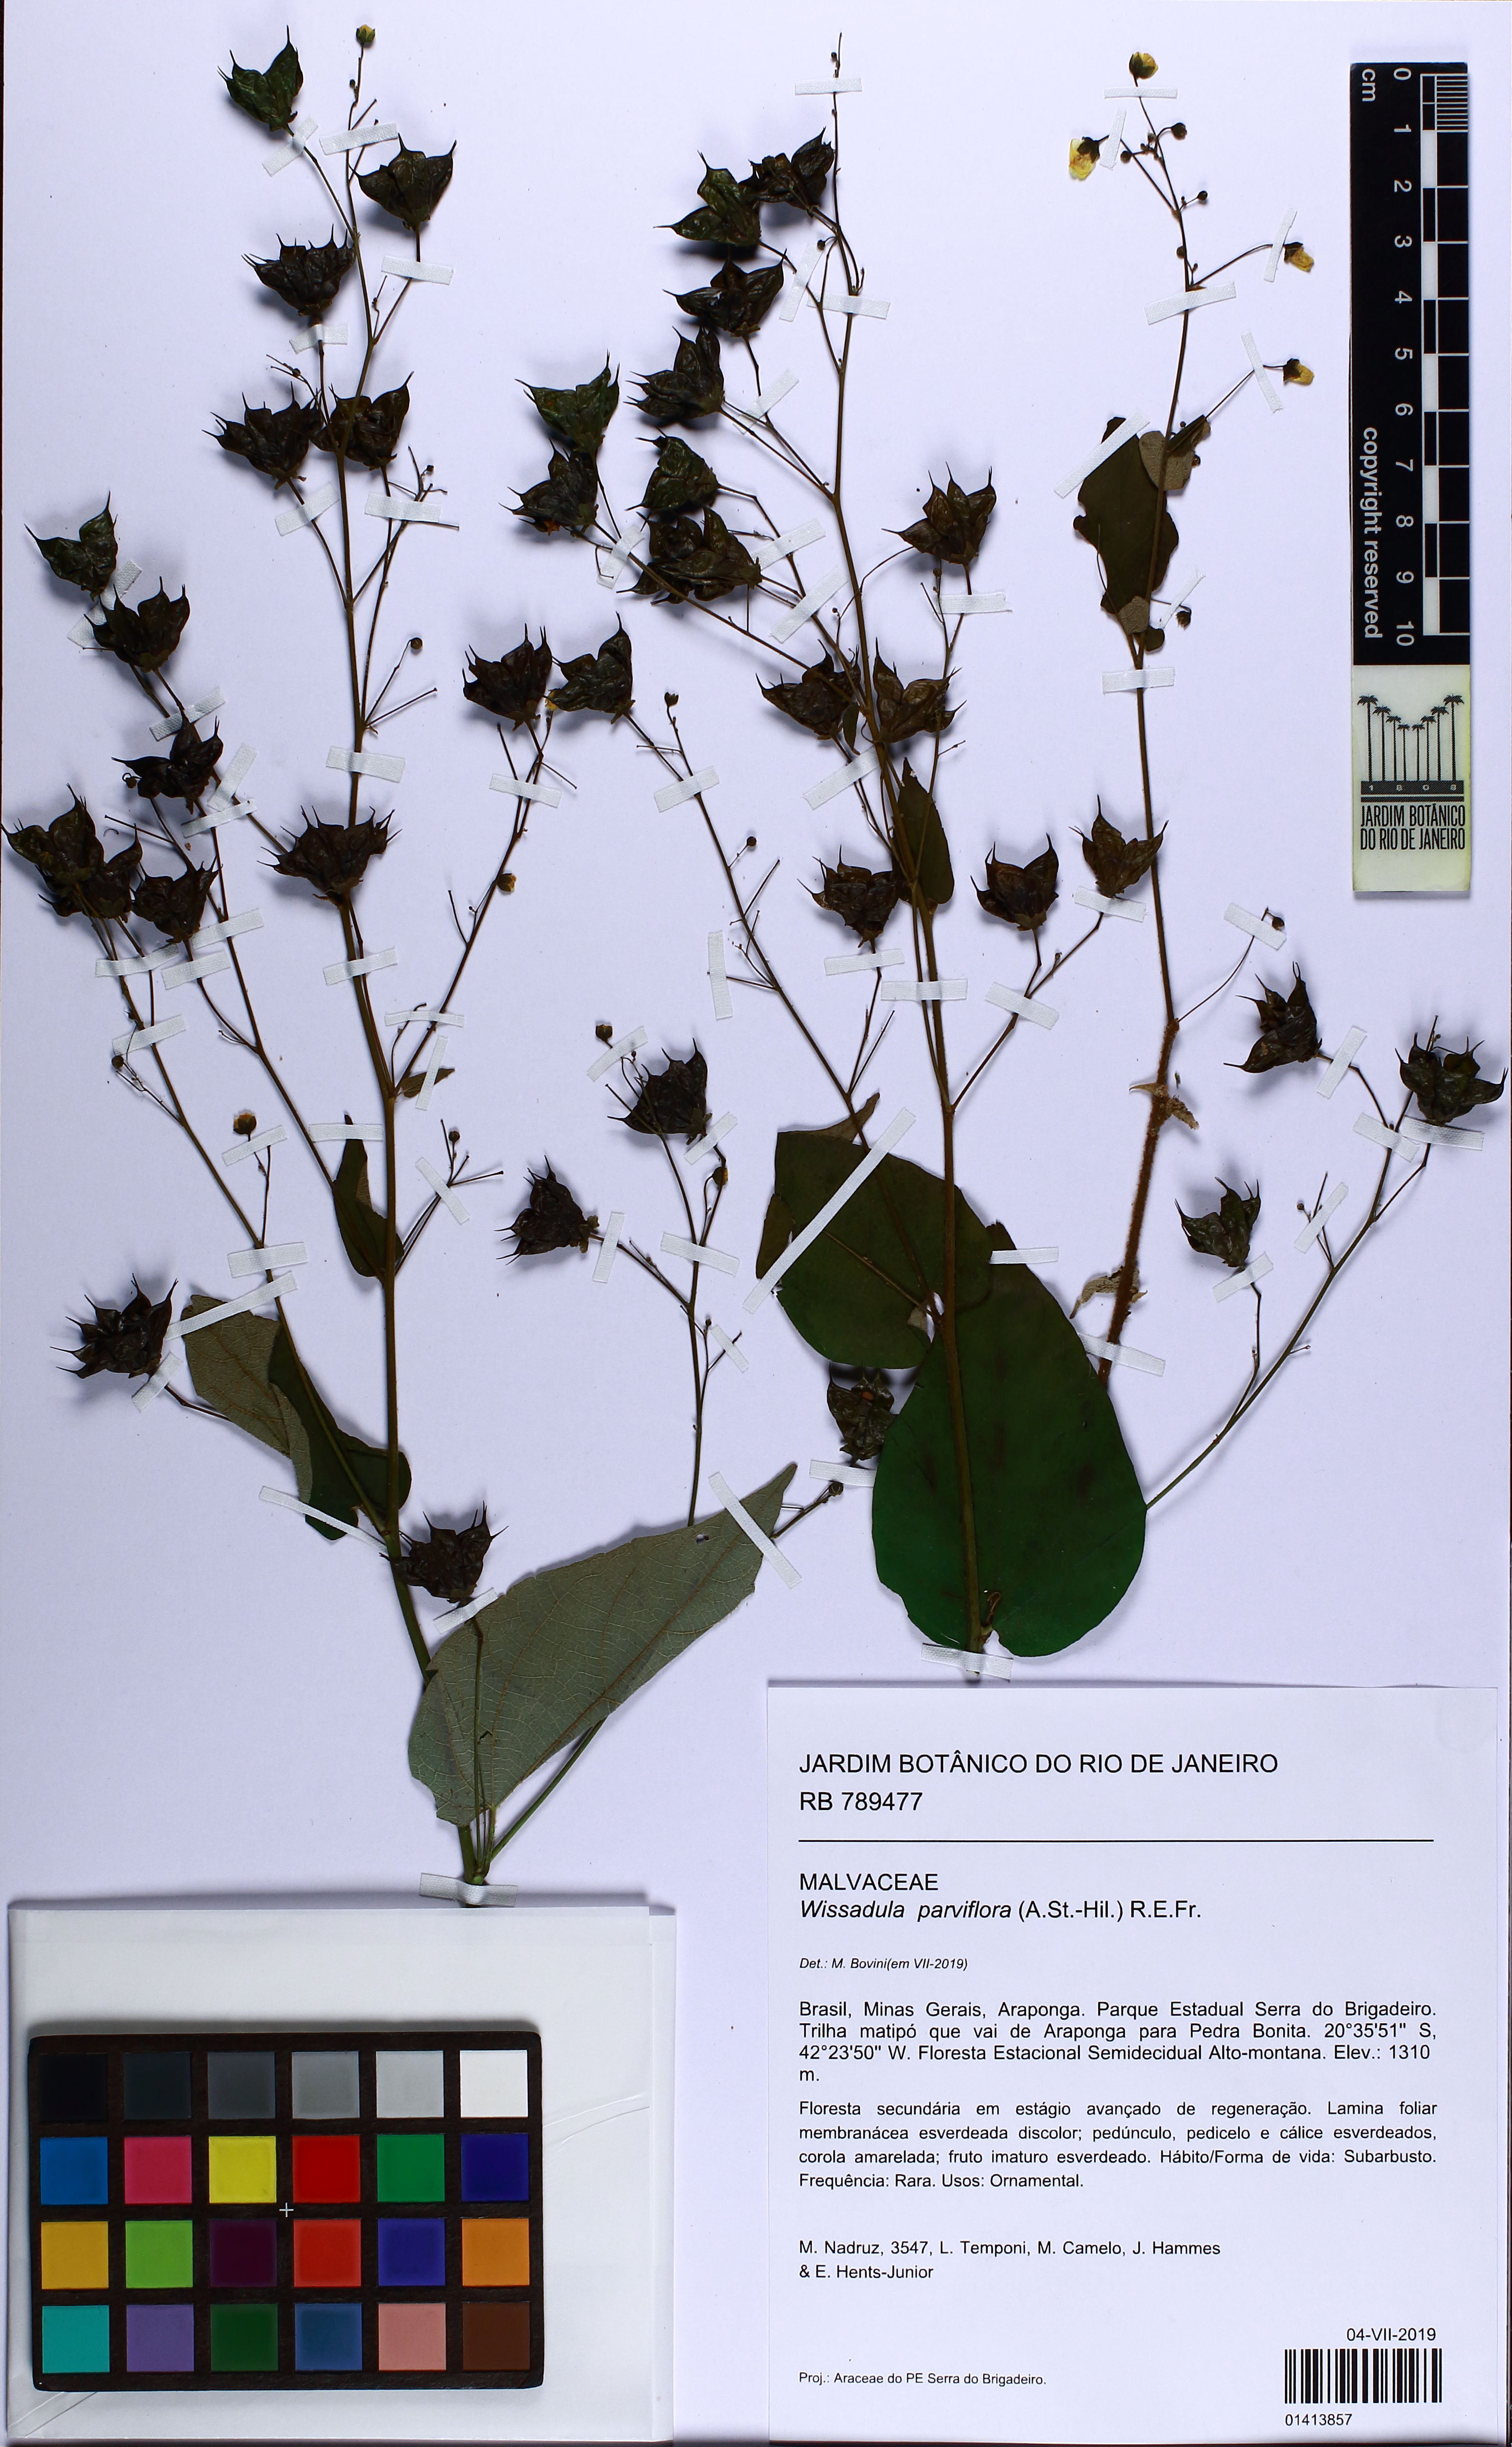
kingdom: Plantae
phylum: Tracheophyta
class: Magnoliopsida
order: Malvales
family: Malvaceae
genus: Wissadula
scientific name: Wissadula parviflora
